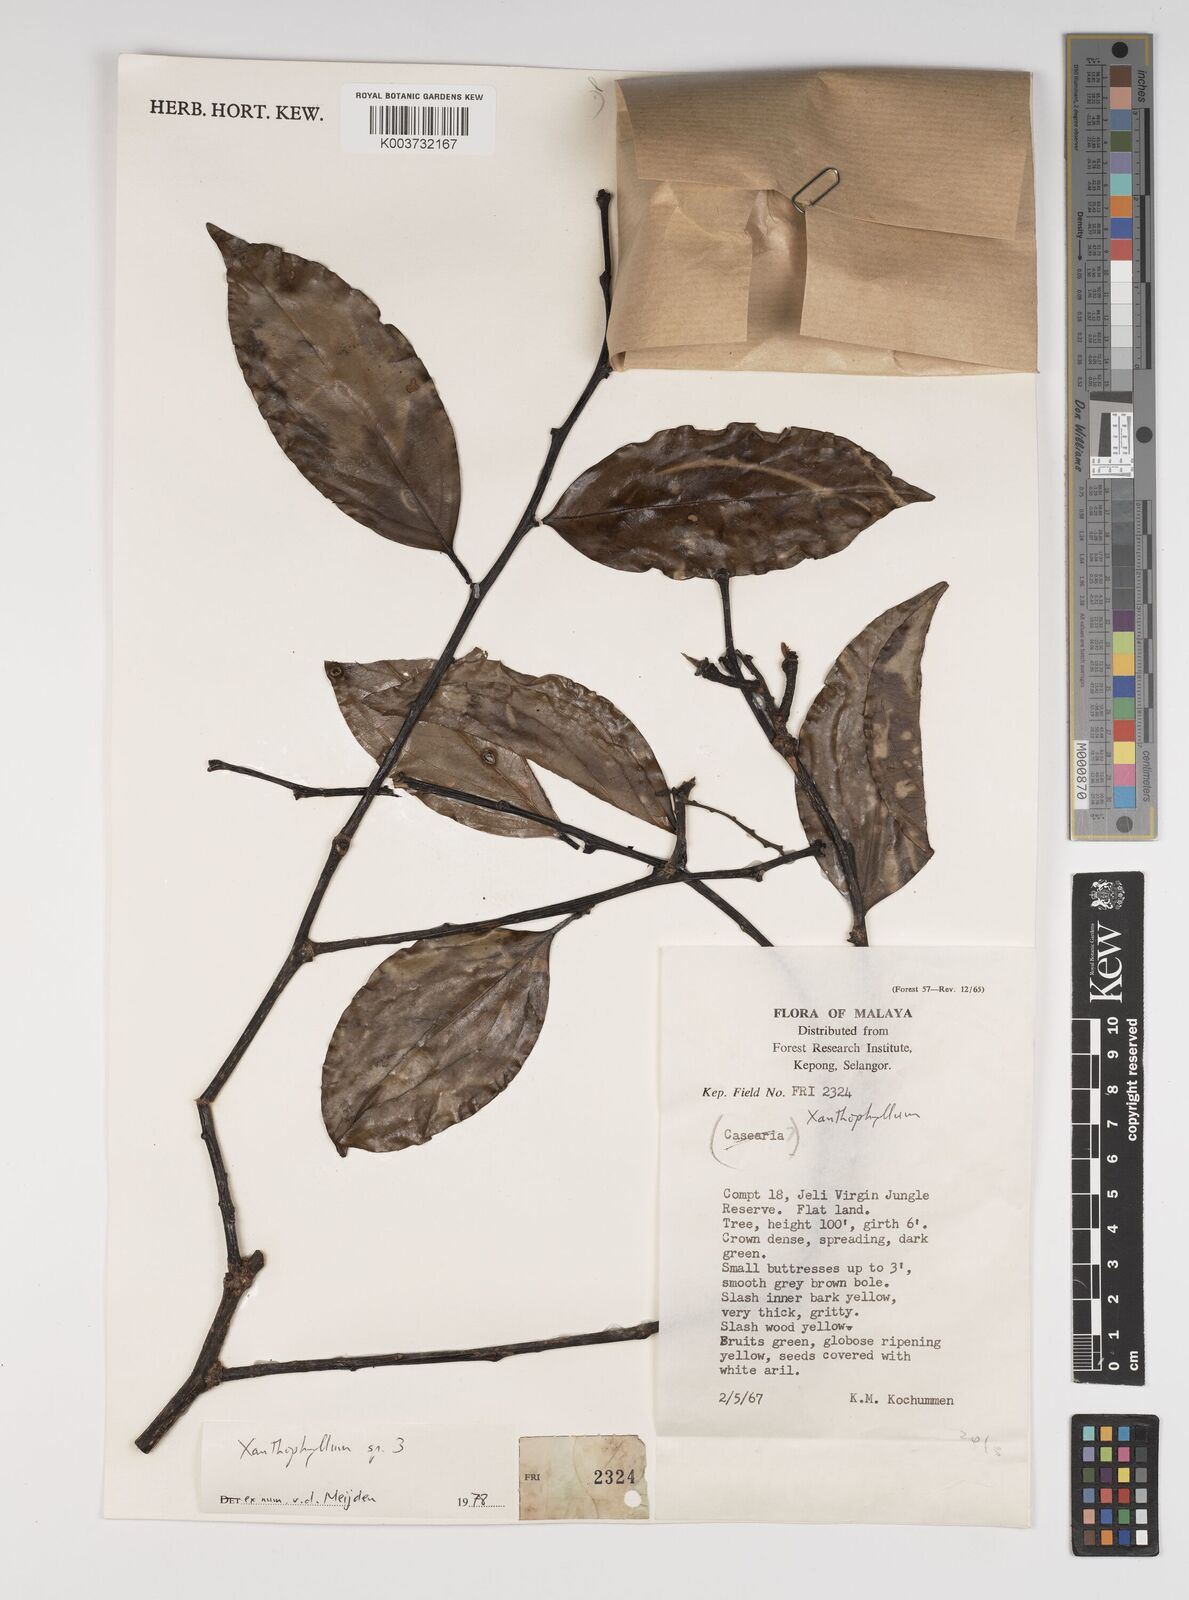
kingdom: Plantae
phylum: Tracheophyta
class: Magnoliopsida
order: Fabales
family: Polygalaceae
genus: Xanthophyllum
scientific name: Xanthophyllum
